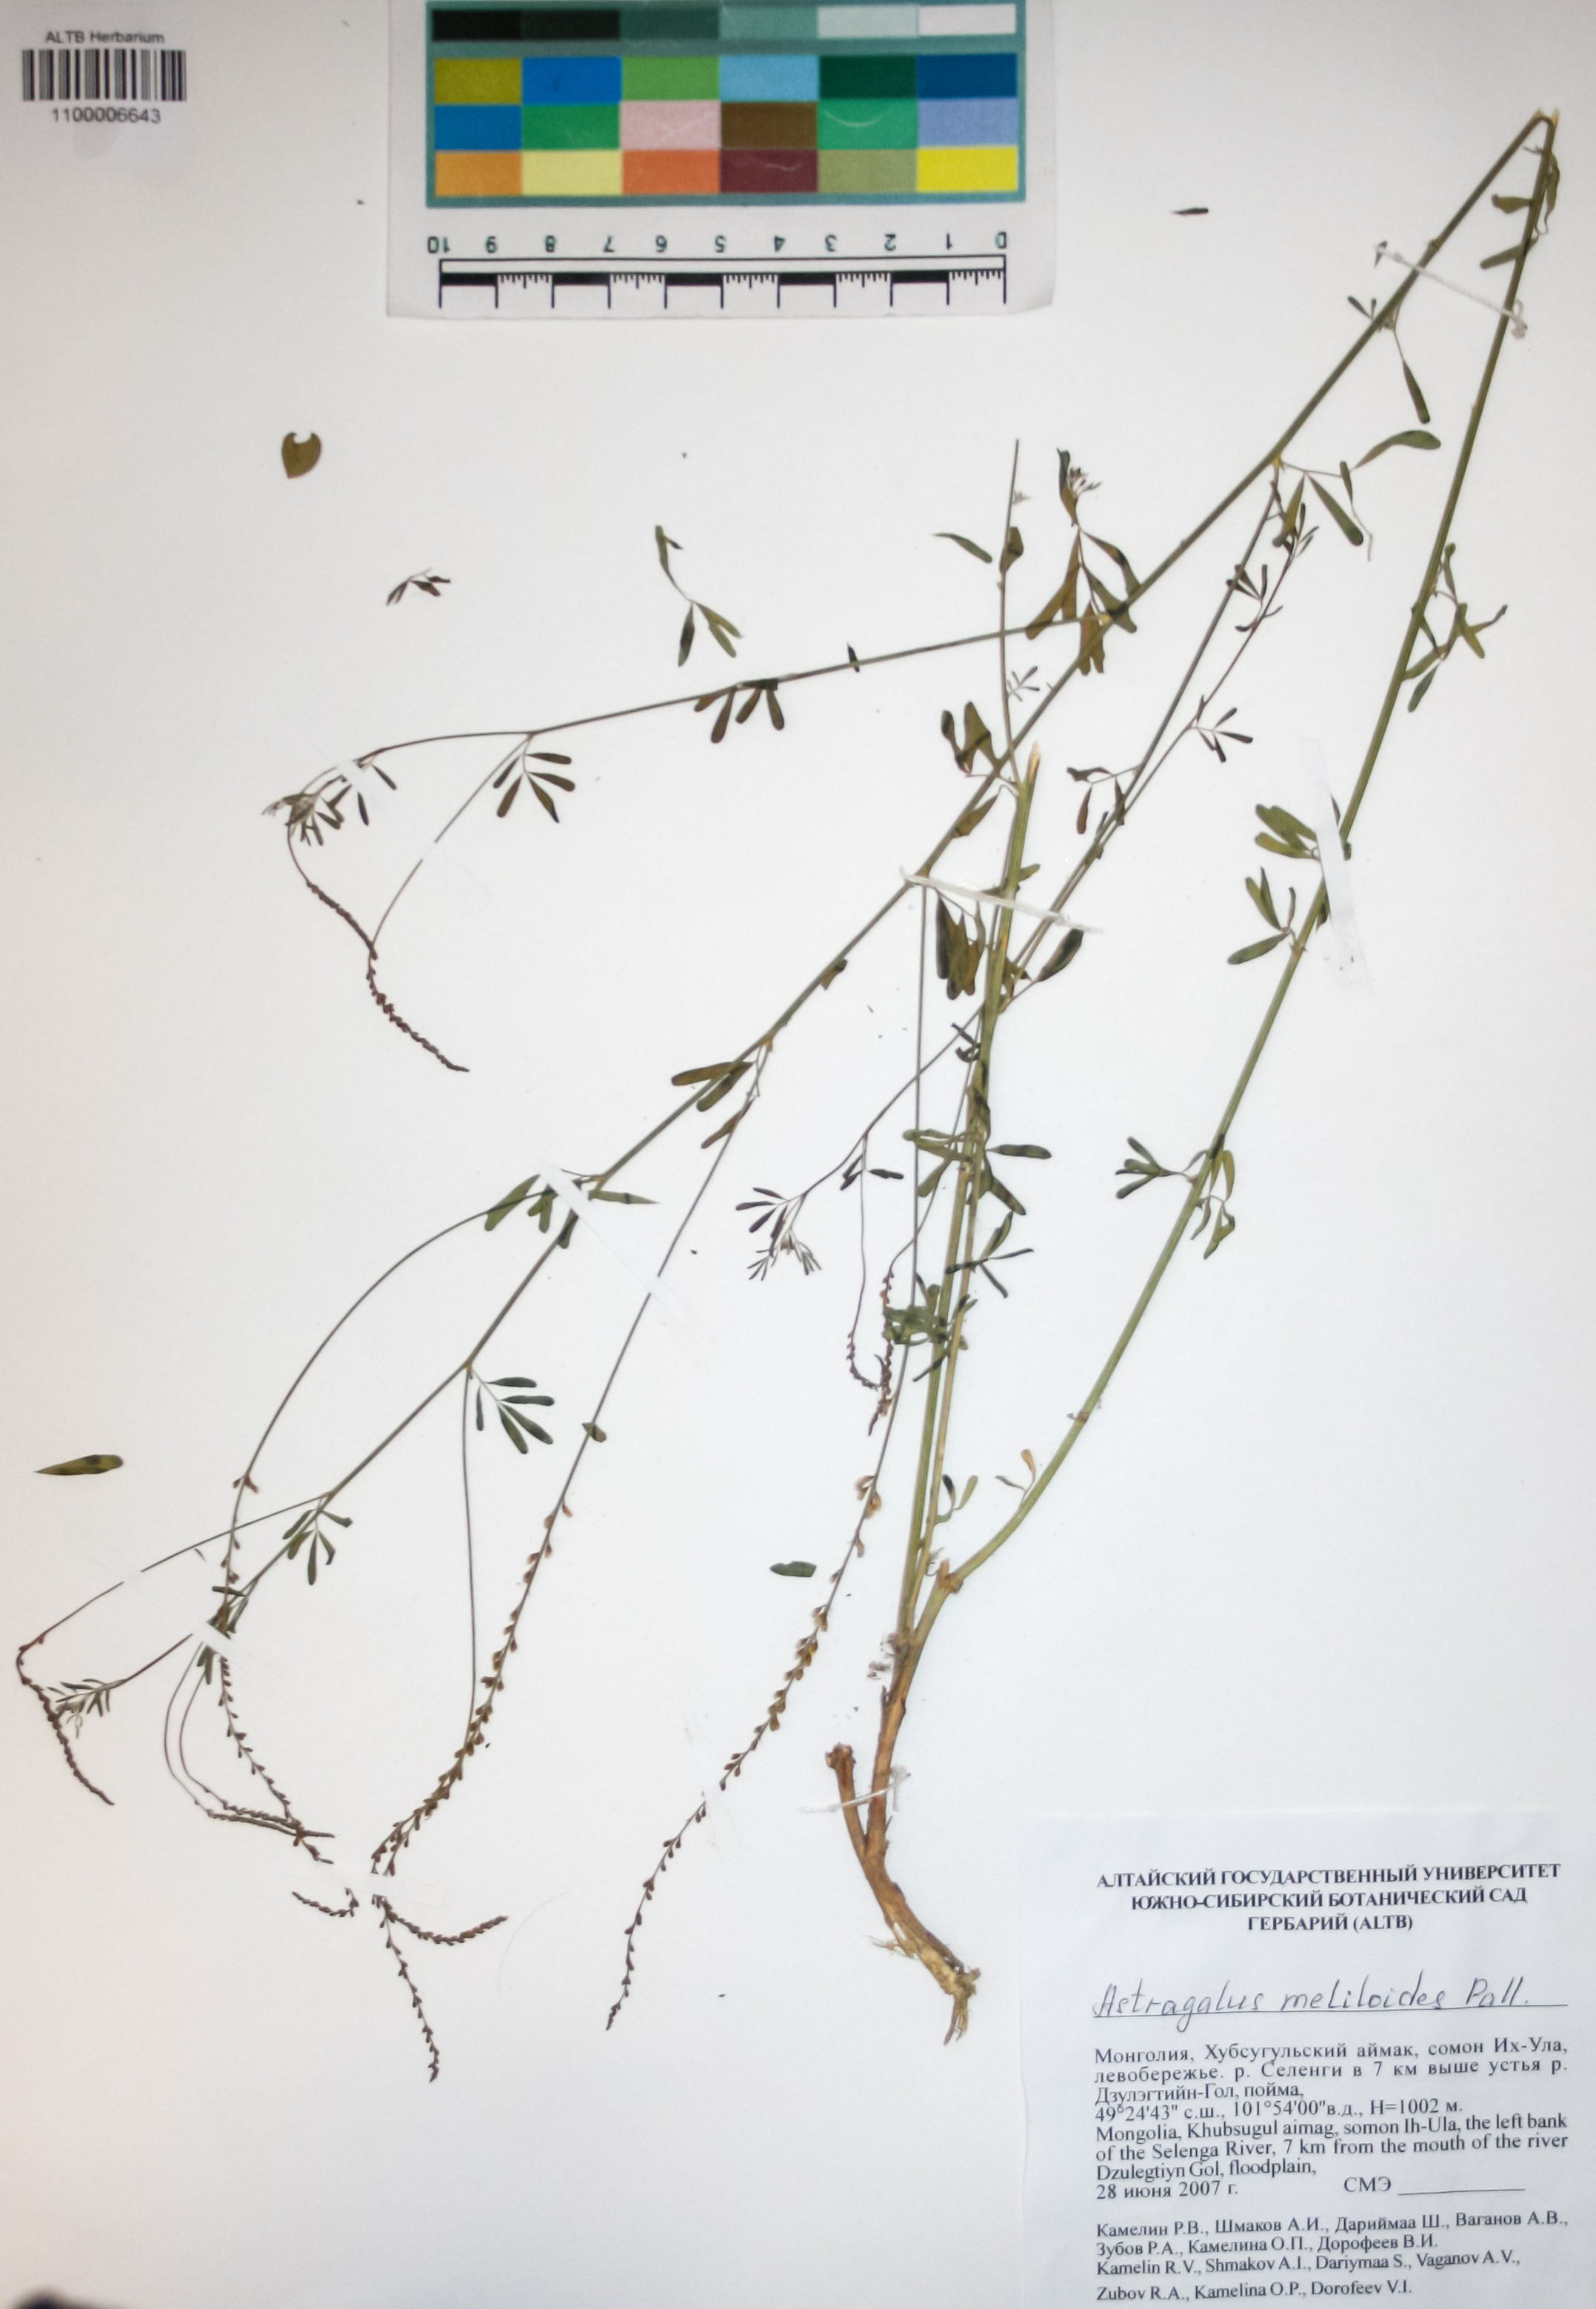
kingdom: Plantae
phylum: Tracheophyta
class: Magnoliopsida
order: Fabales
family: Fabaceae
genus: Astragalus
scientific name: Astragalus melilotoides
